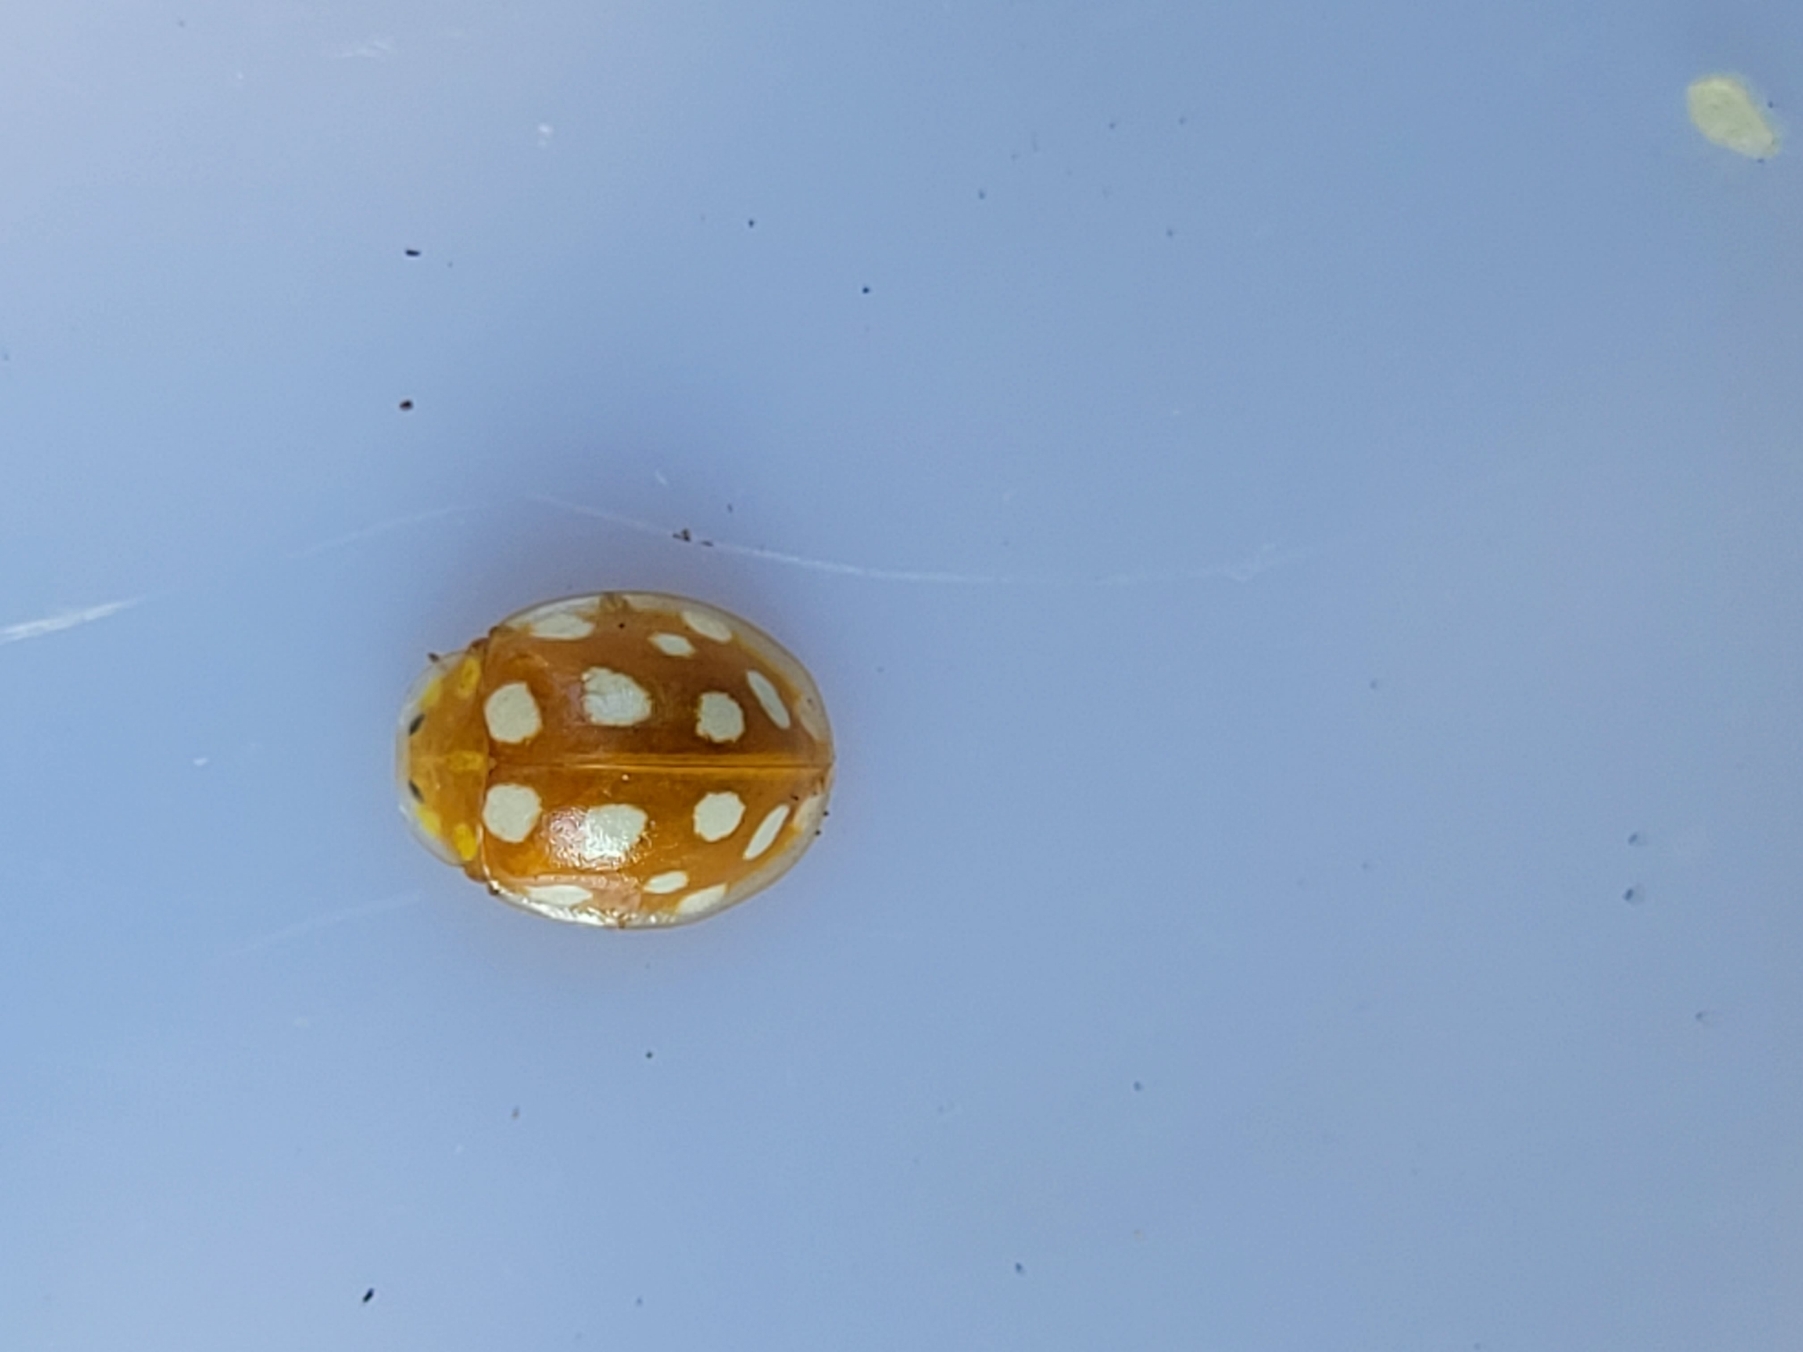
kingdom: Animalia
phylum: Arthropoda
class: Insecta
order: Coleoptera
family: Coccinellidae
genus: Halyzia
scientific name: Halyzia sedecimguttata
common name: Sekstenplettet mariehøne
